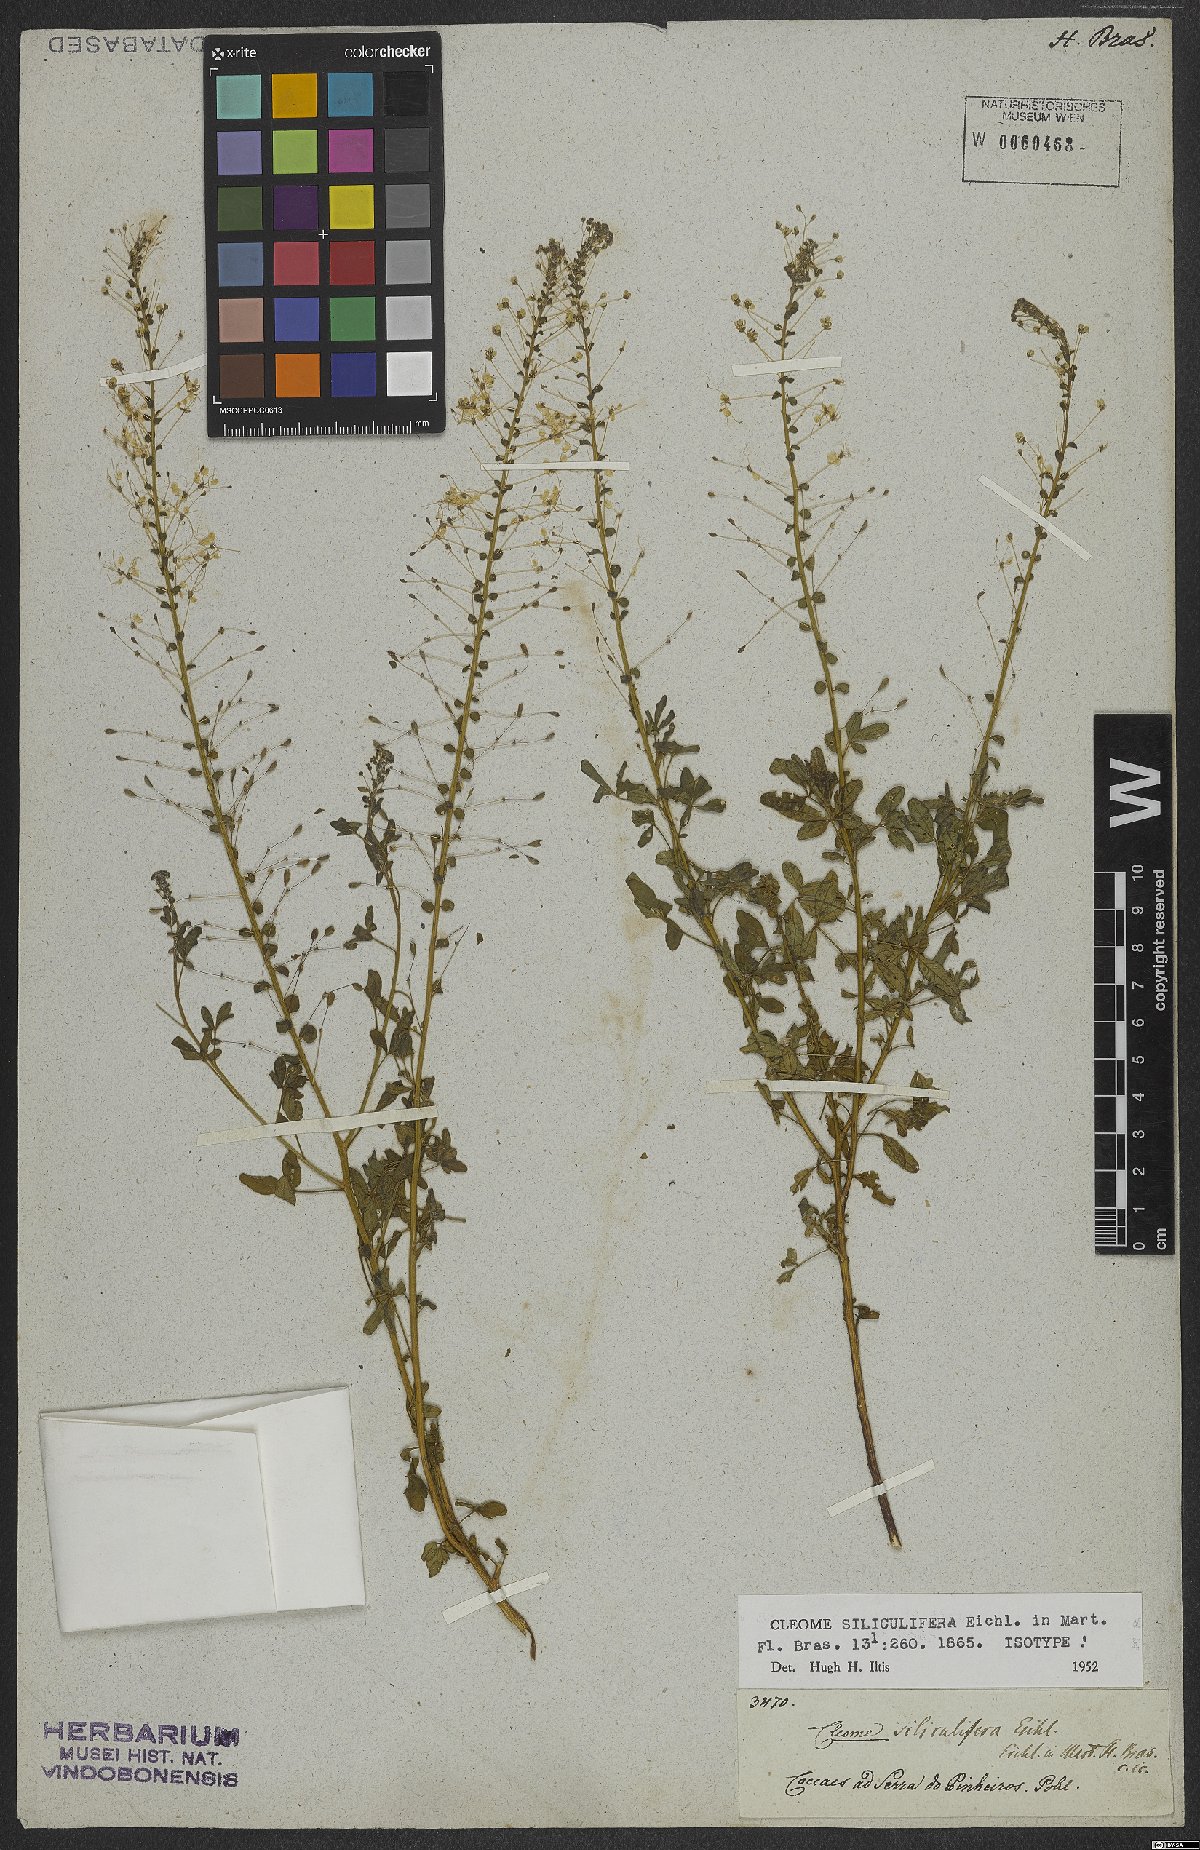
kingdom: Plantae
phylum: Tracheophyta
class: Magnoliopsida
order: Brassicales
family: Cleomaceae
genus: Tarenaya
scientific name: Tarenaya siliculifera
